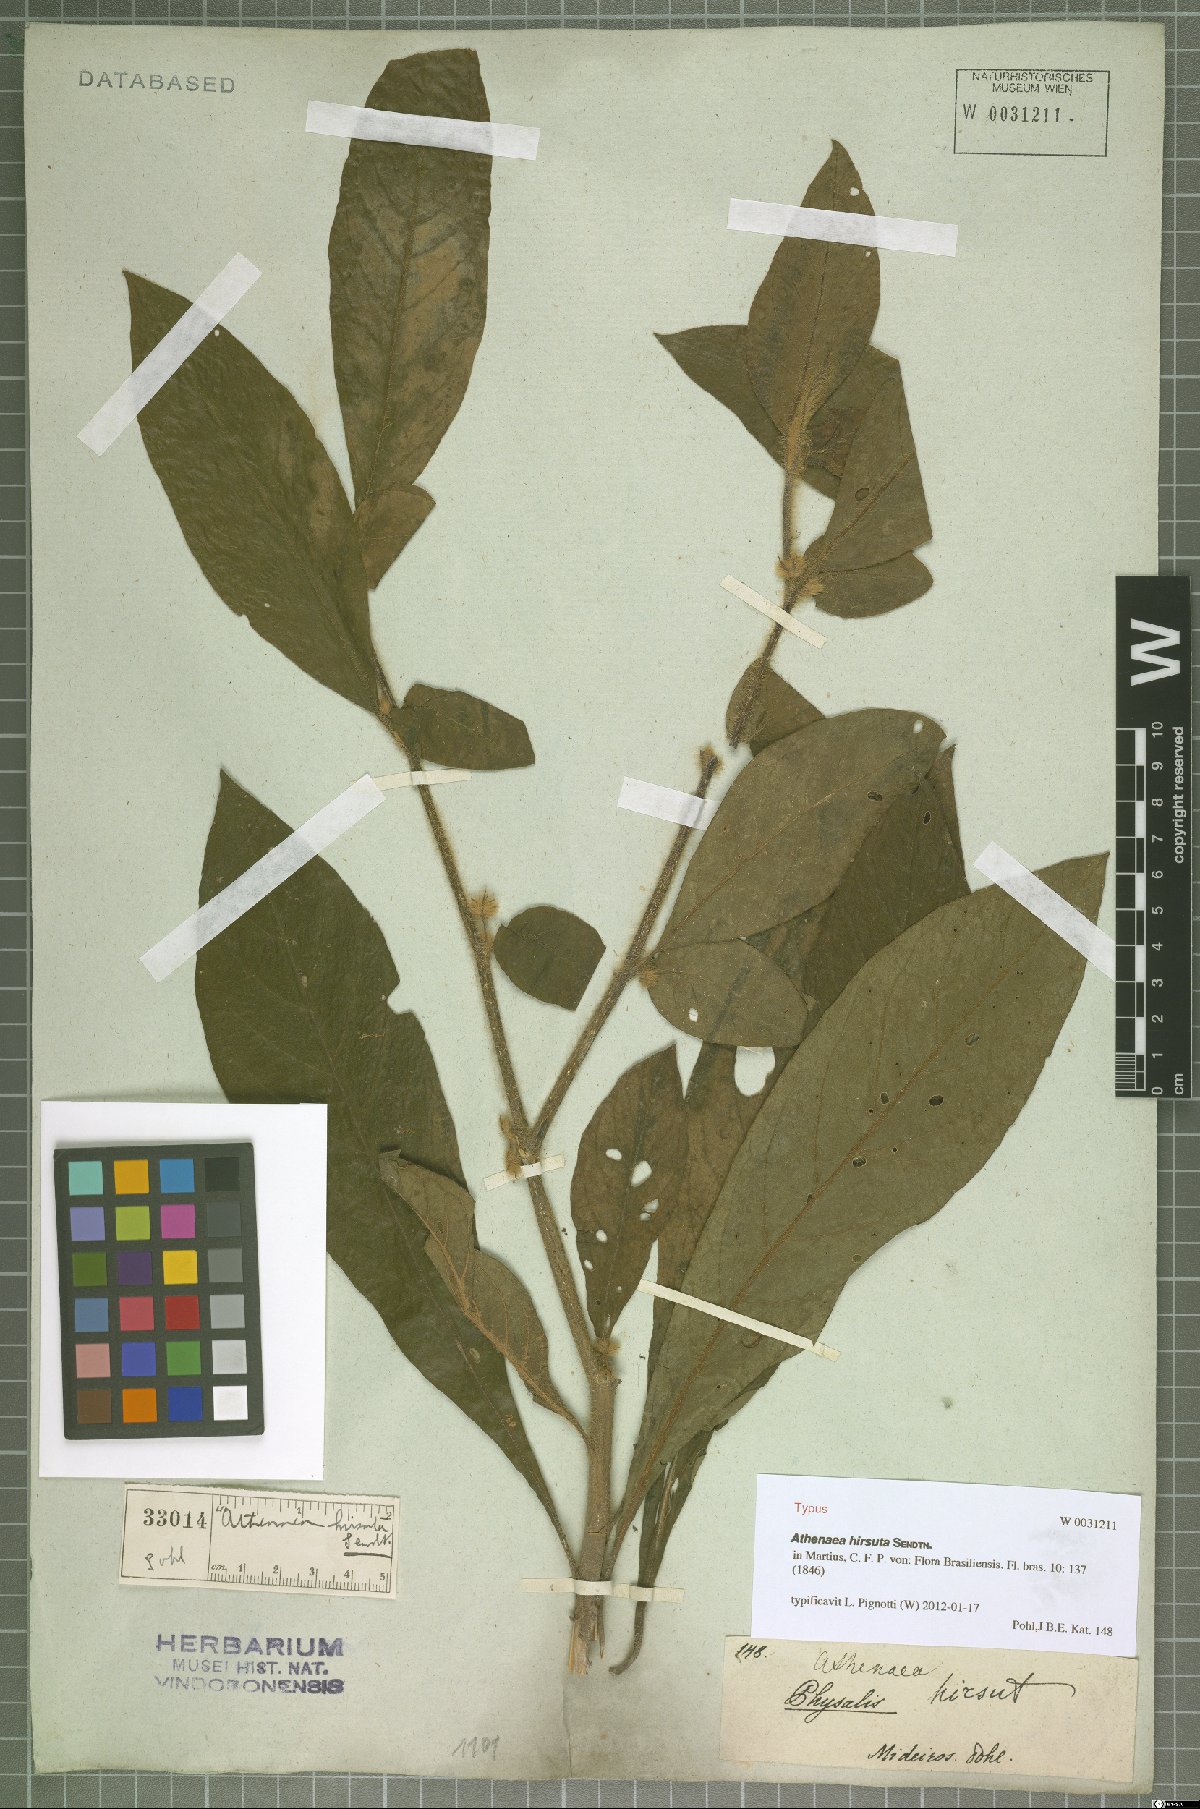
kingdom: Plantae
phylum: Tracheophyta
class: Magnoliopsida
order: Solanales
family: Solanaceae
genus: Athenaea
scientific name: Athenaea martiana
